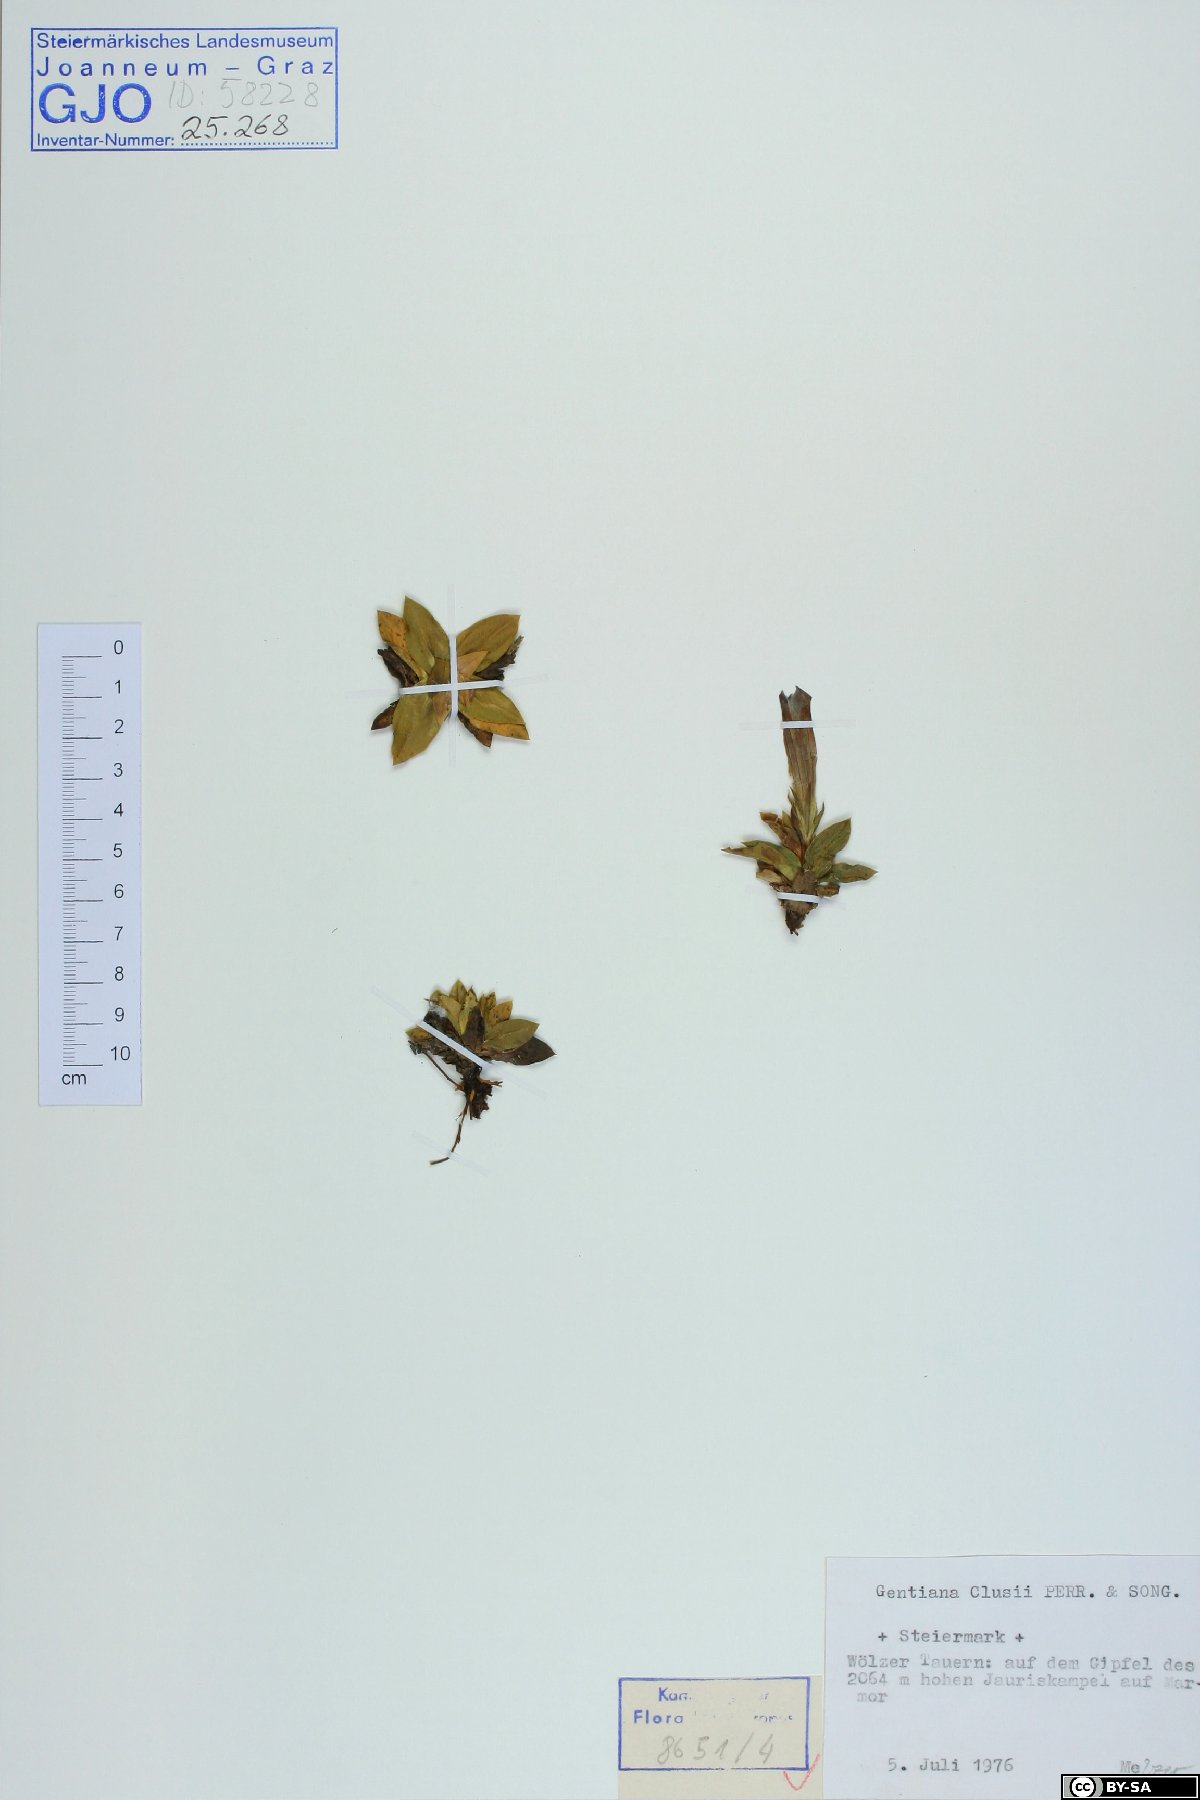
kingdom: Plantae
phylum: Tracheophyta
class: Magnoliopsida
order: Gentianales
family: Gentianaceae
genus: Gentiana
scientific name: Gentiana clusii
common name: Trumpet gentian
